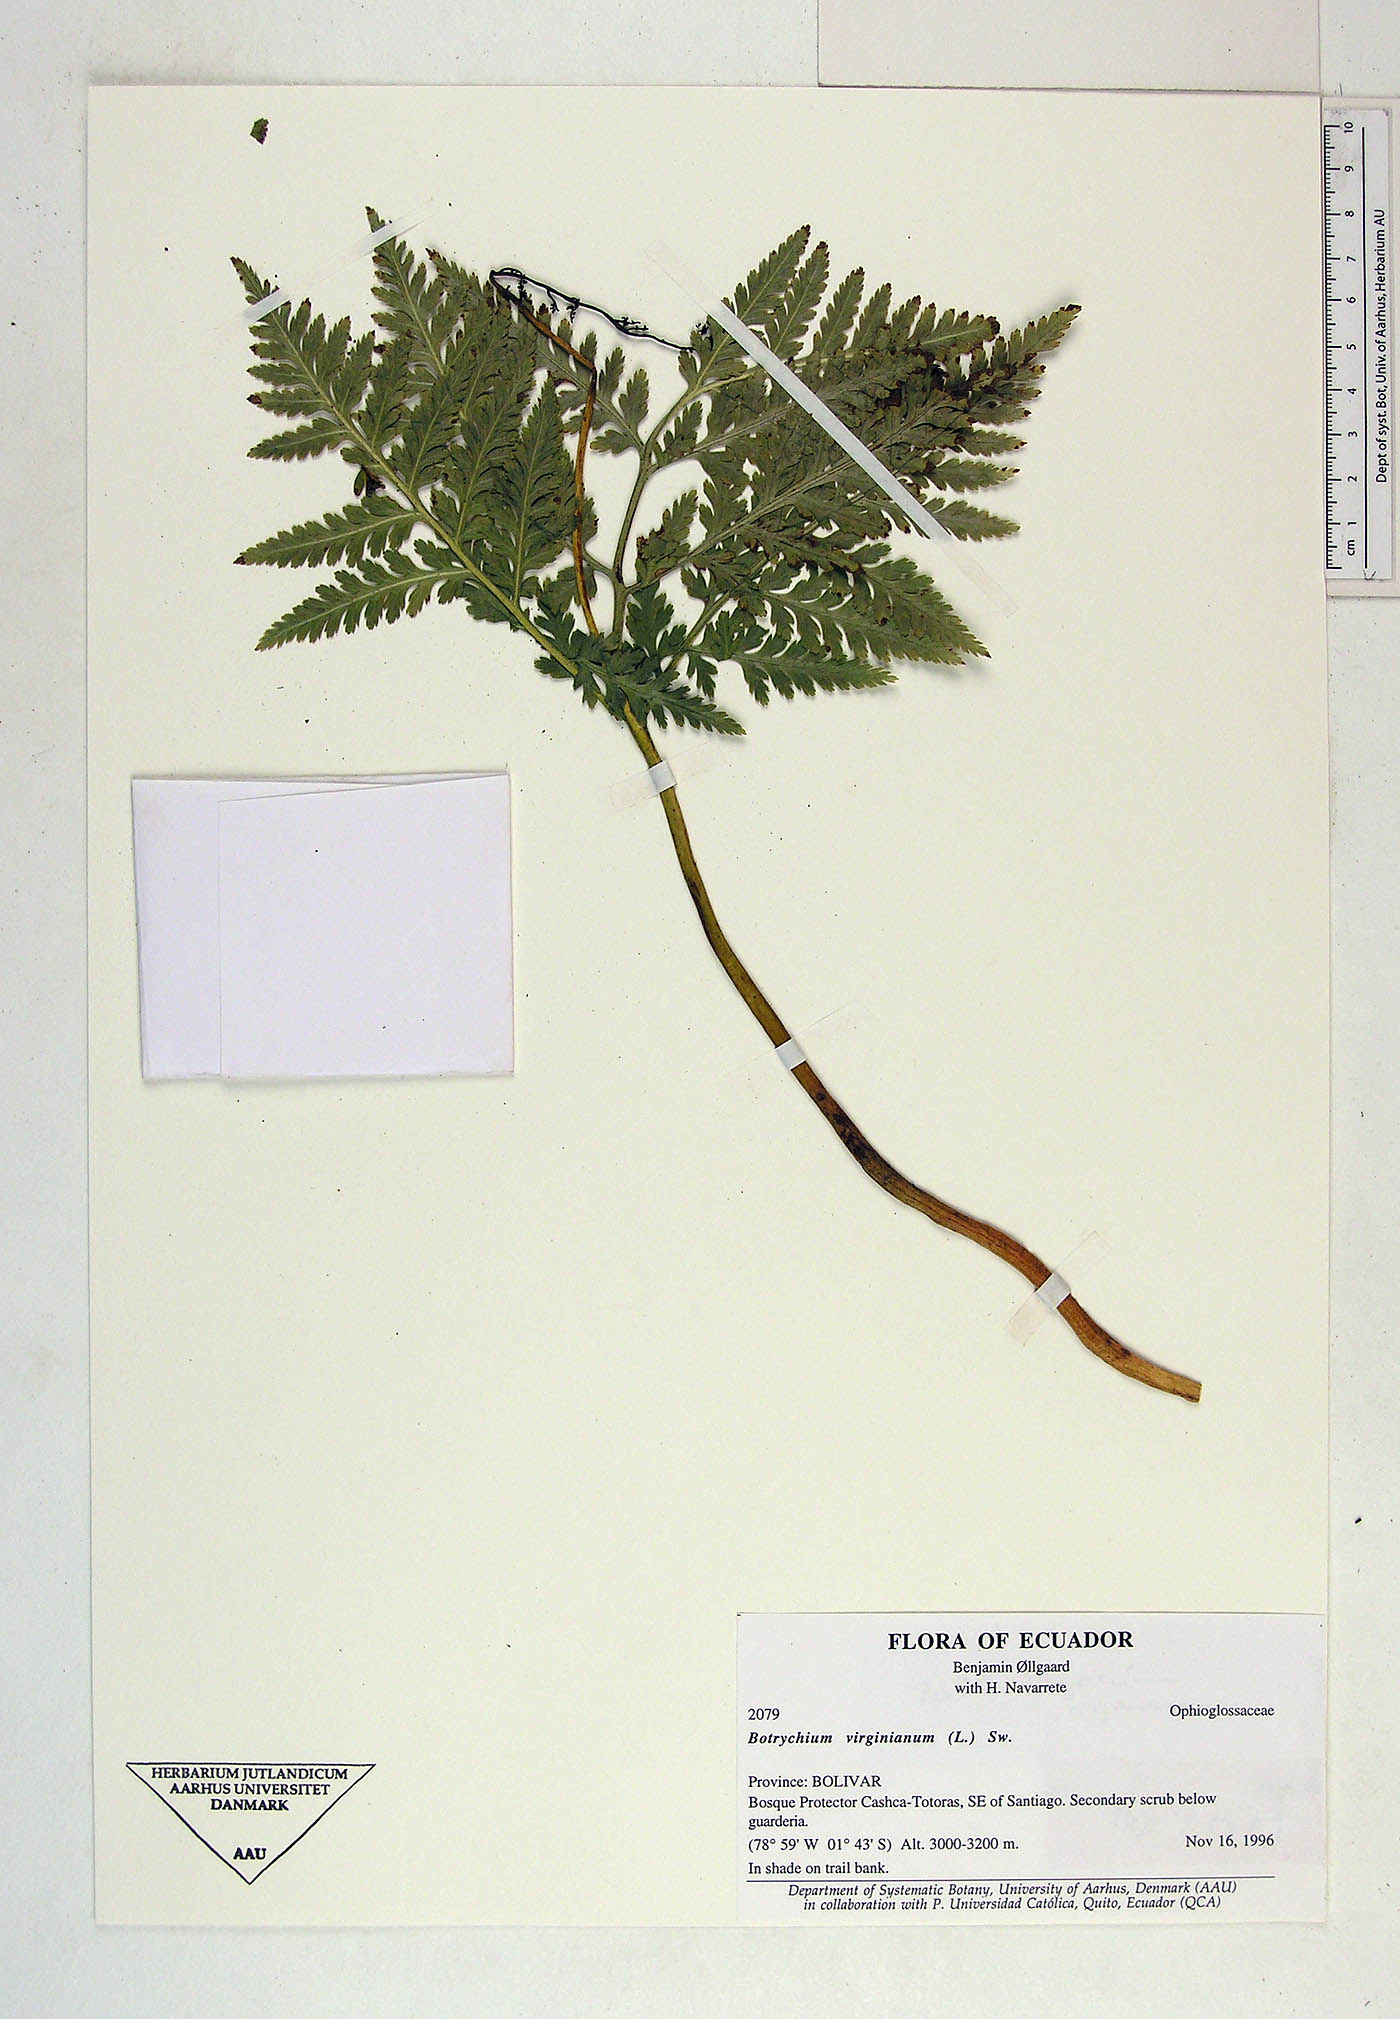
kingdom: Plantae
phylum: Tracheophyta
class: Polypodiopsida
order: Ophioglossales
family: Ophioglossaceae
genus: Botrypus
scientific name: Botrypus virginianus
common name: Common grapefern
